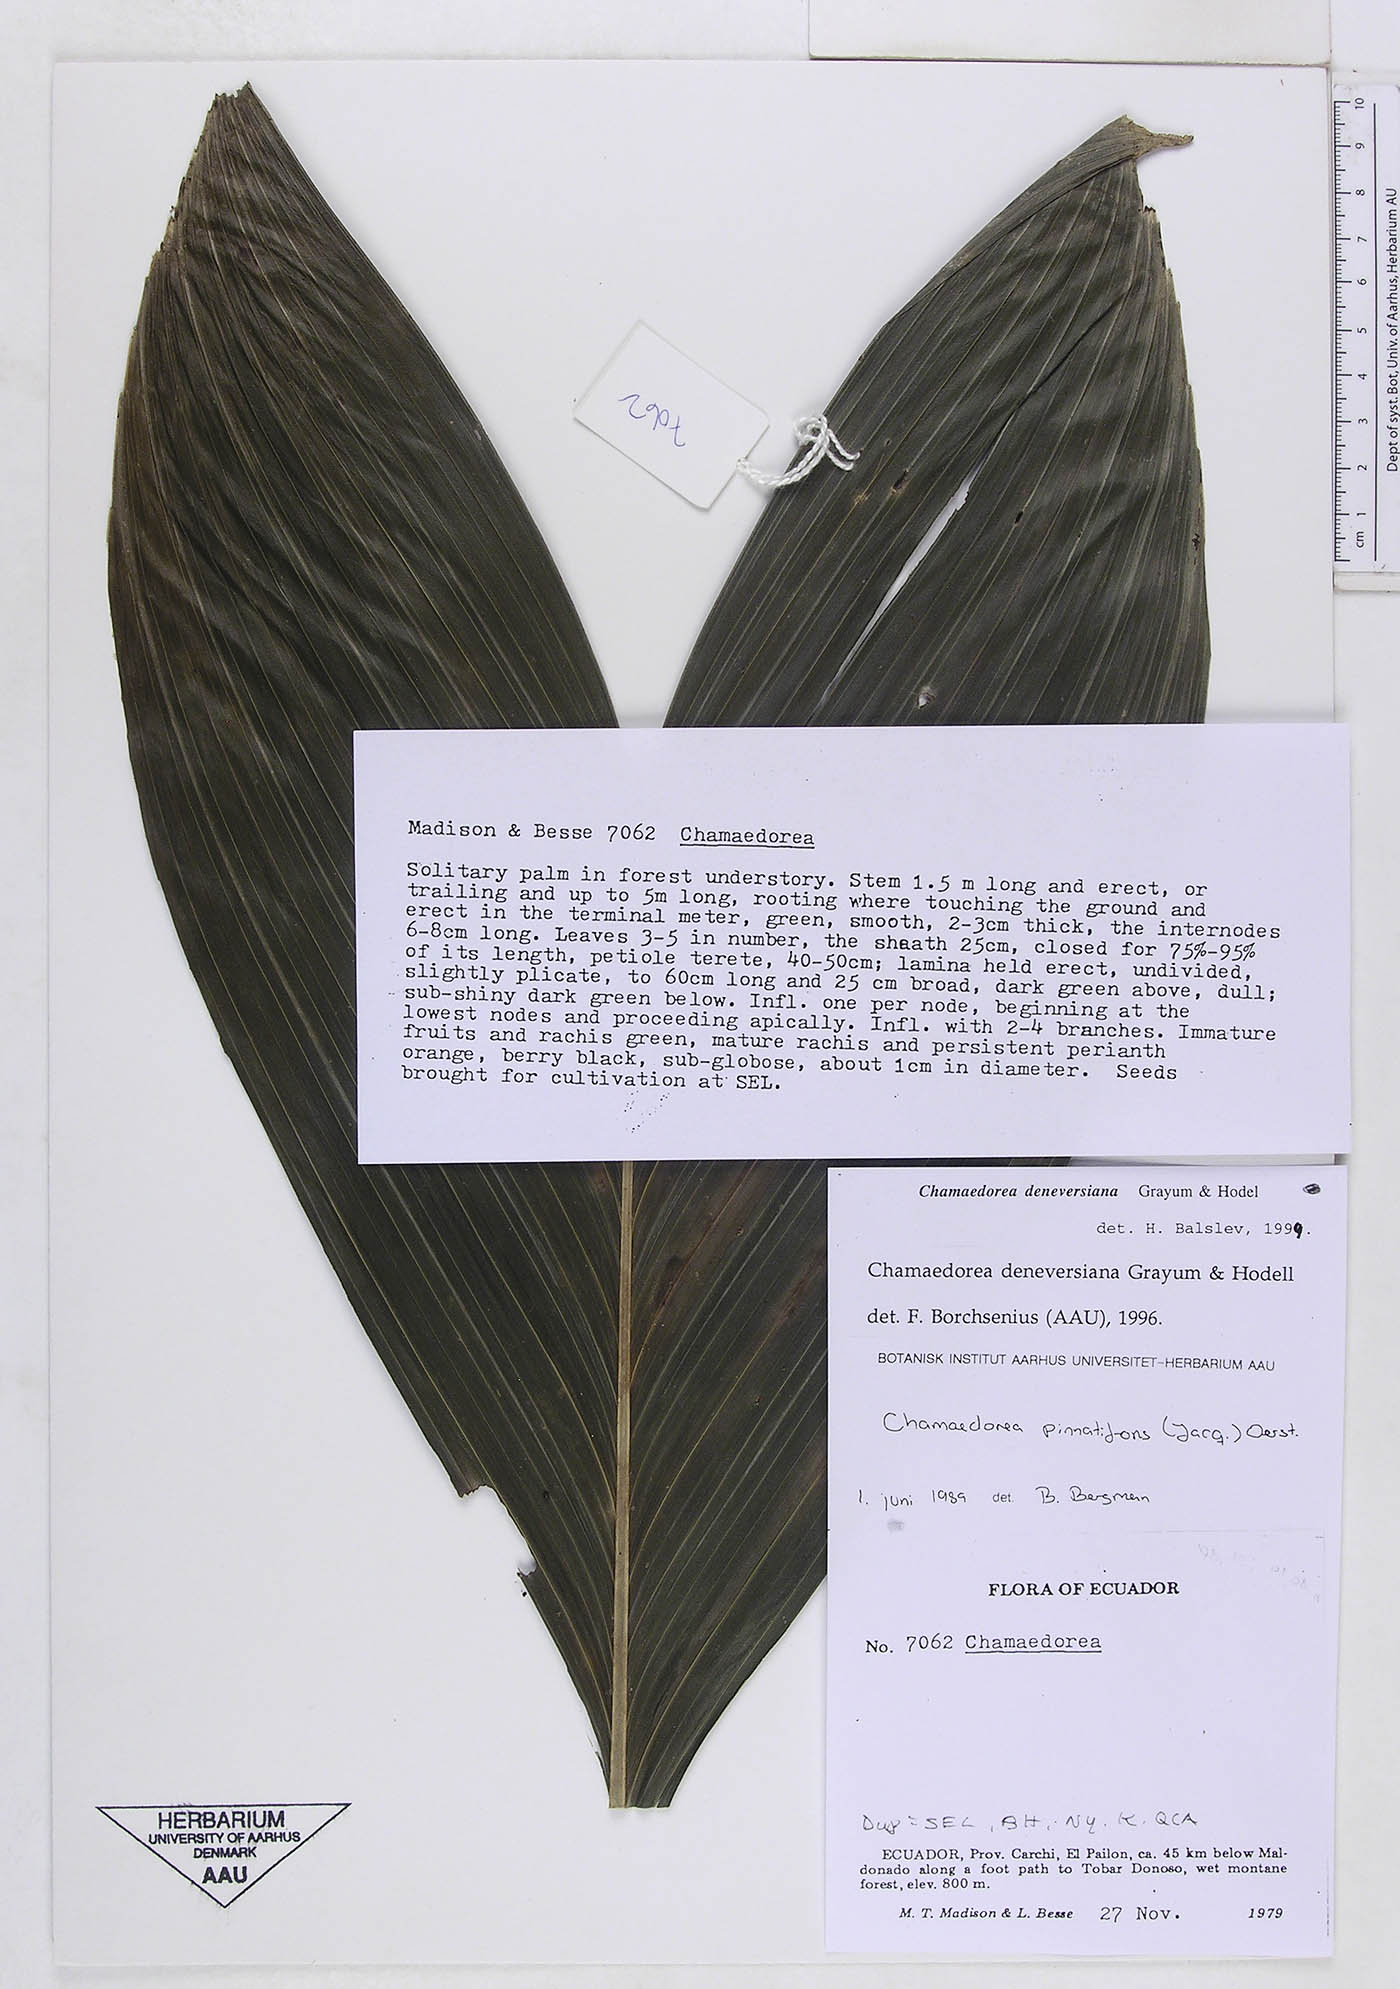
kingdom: Plantae
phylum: Tracheophyta
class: Liliopsida
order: Arecales
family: Arecaceae
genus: Chamaedorea
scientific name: Chamaedorea linearis
